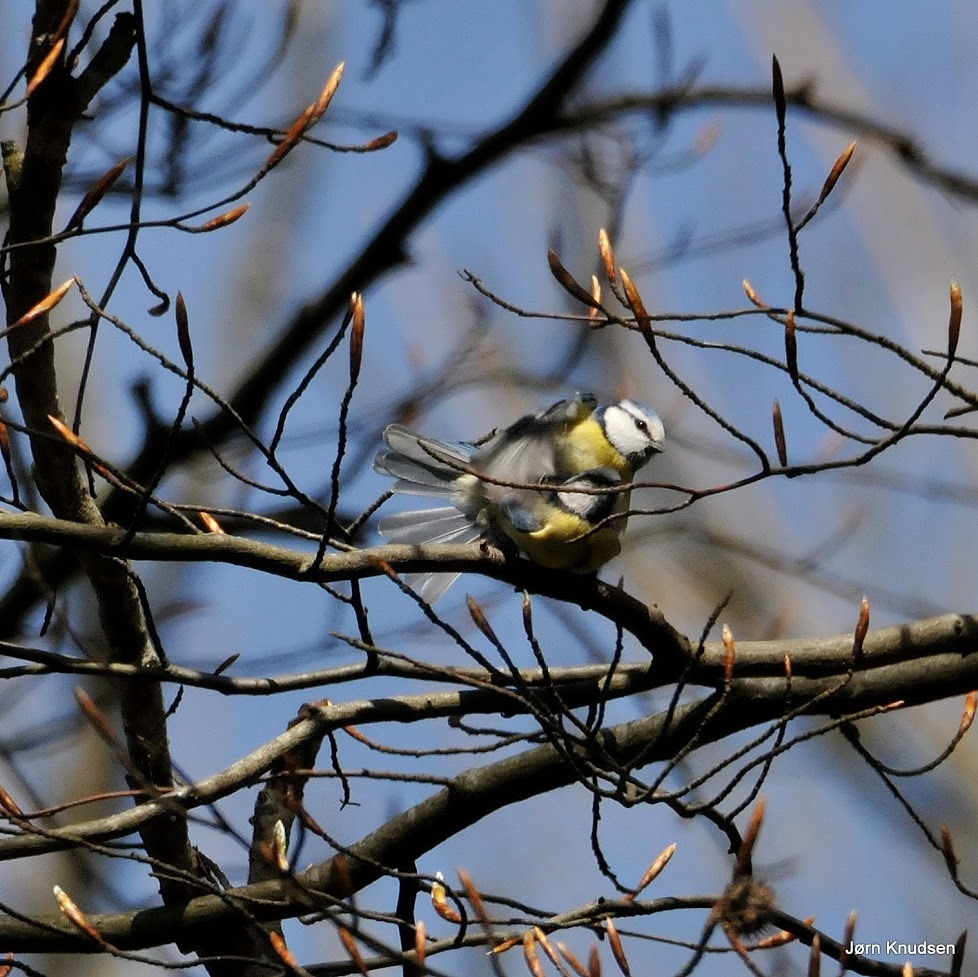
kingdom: Animalia
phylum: Chordata
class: Aves
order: Passeriformes
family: Paridae
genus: Cyanistes
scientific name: Cyanistes caeruleus
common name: Blåmejse
